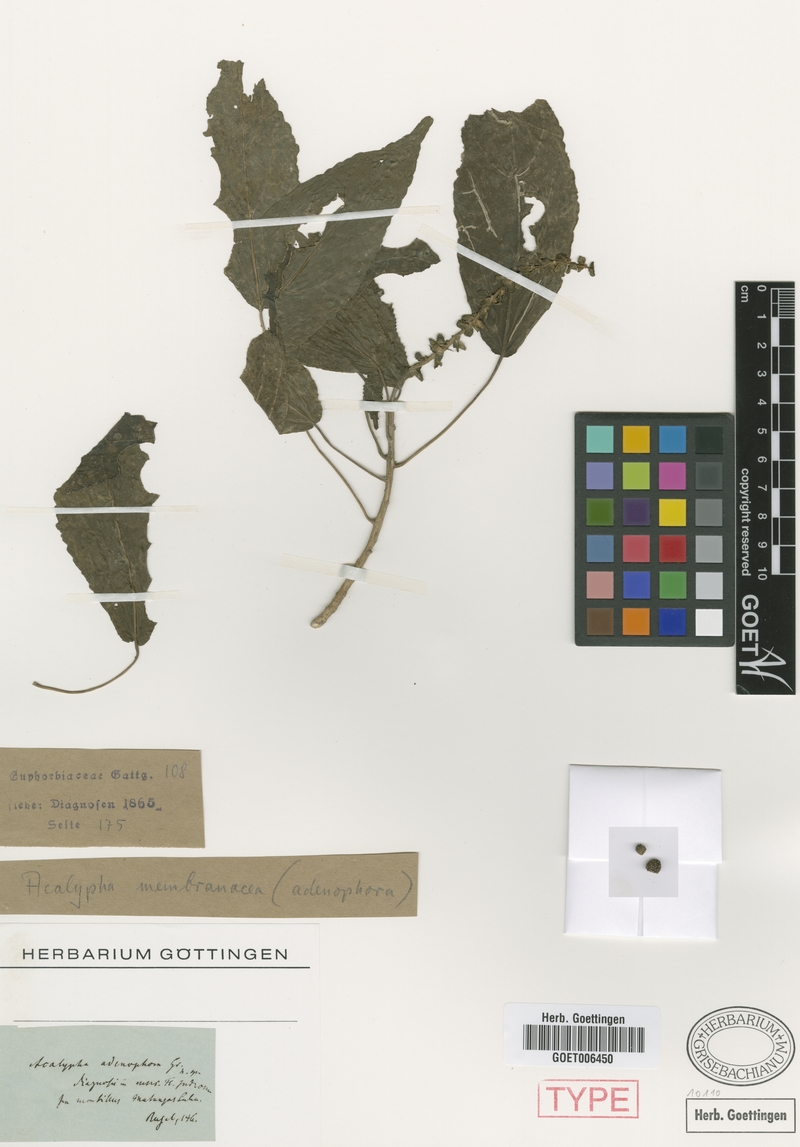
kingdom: Plantae
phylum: Tracheophyta
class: Magnoliopsida
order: Malpighiales
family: Euphorbiaceae
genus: Acalypha
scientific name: Acalypha membranacea
